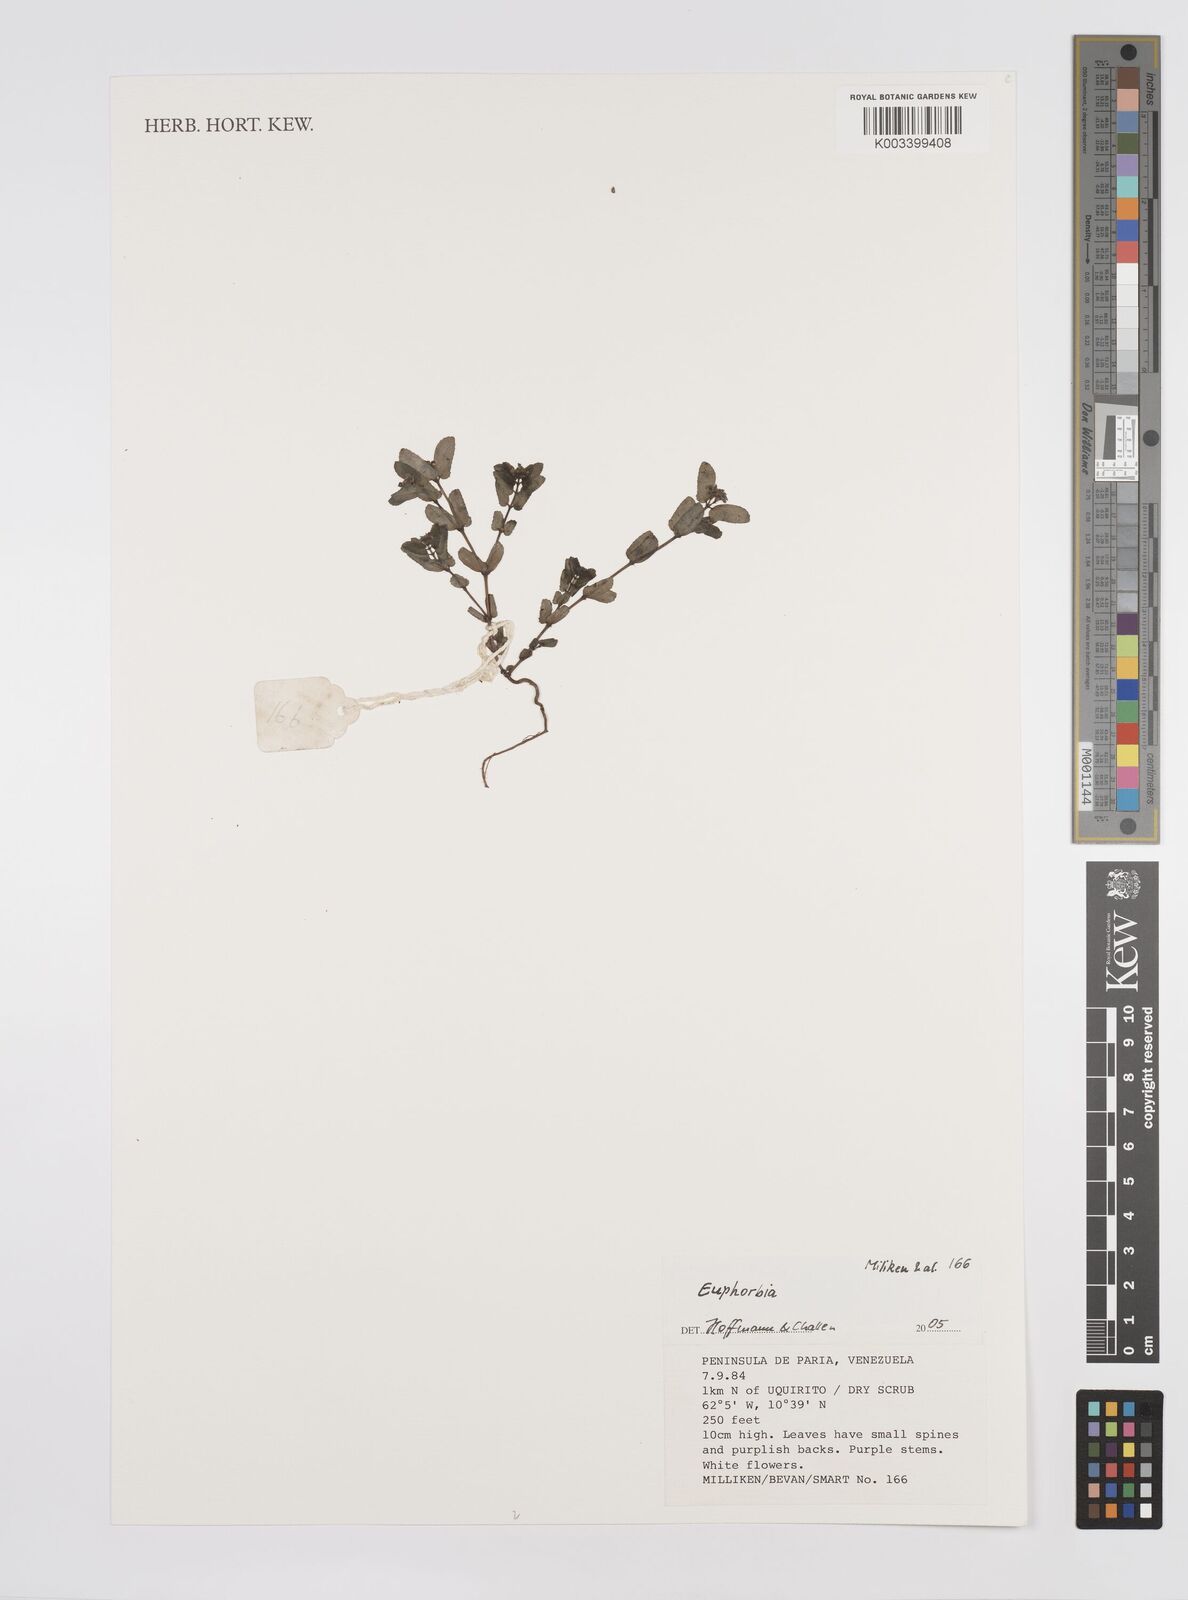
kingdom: Plantae
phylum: Tracheophyta
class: Magnoliopsida
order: Malpighiales
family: Euphorbiaceae
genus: Euphorbia
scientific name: Euphorbia
